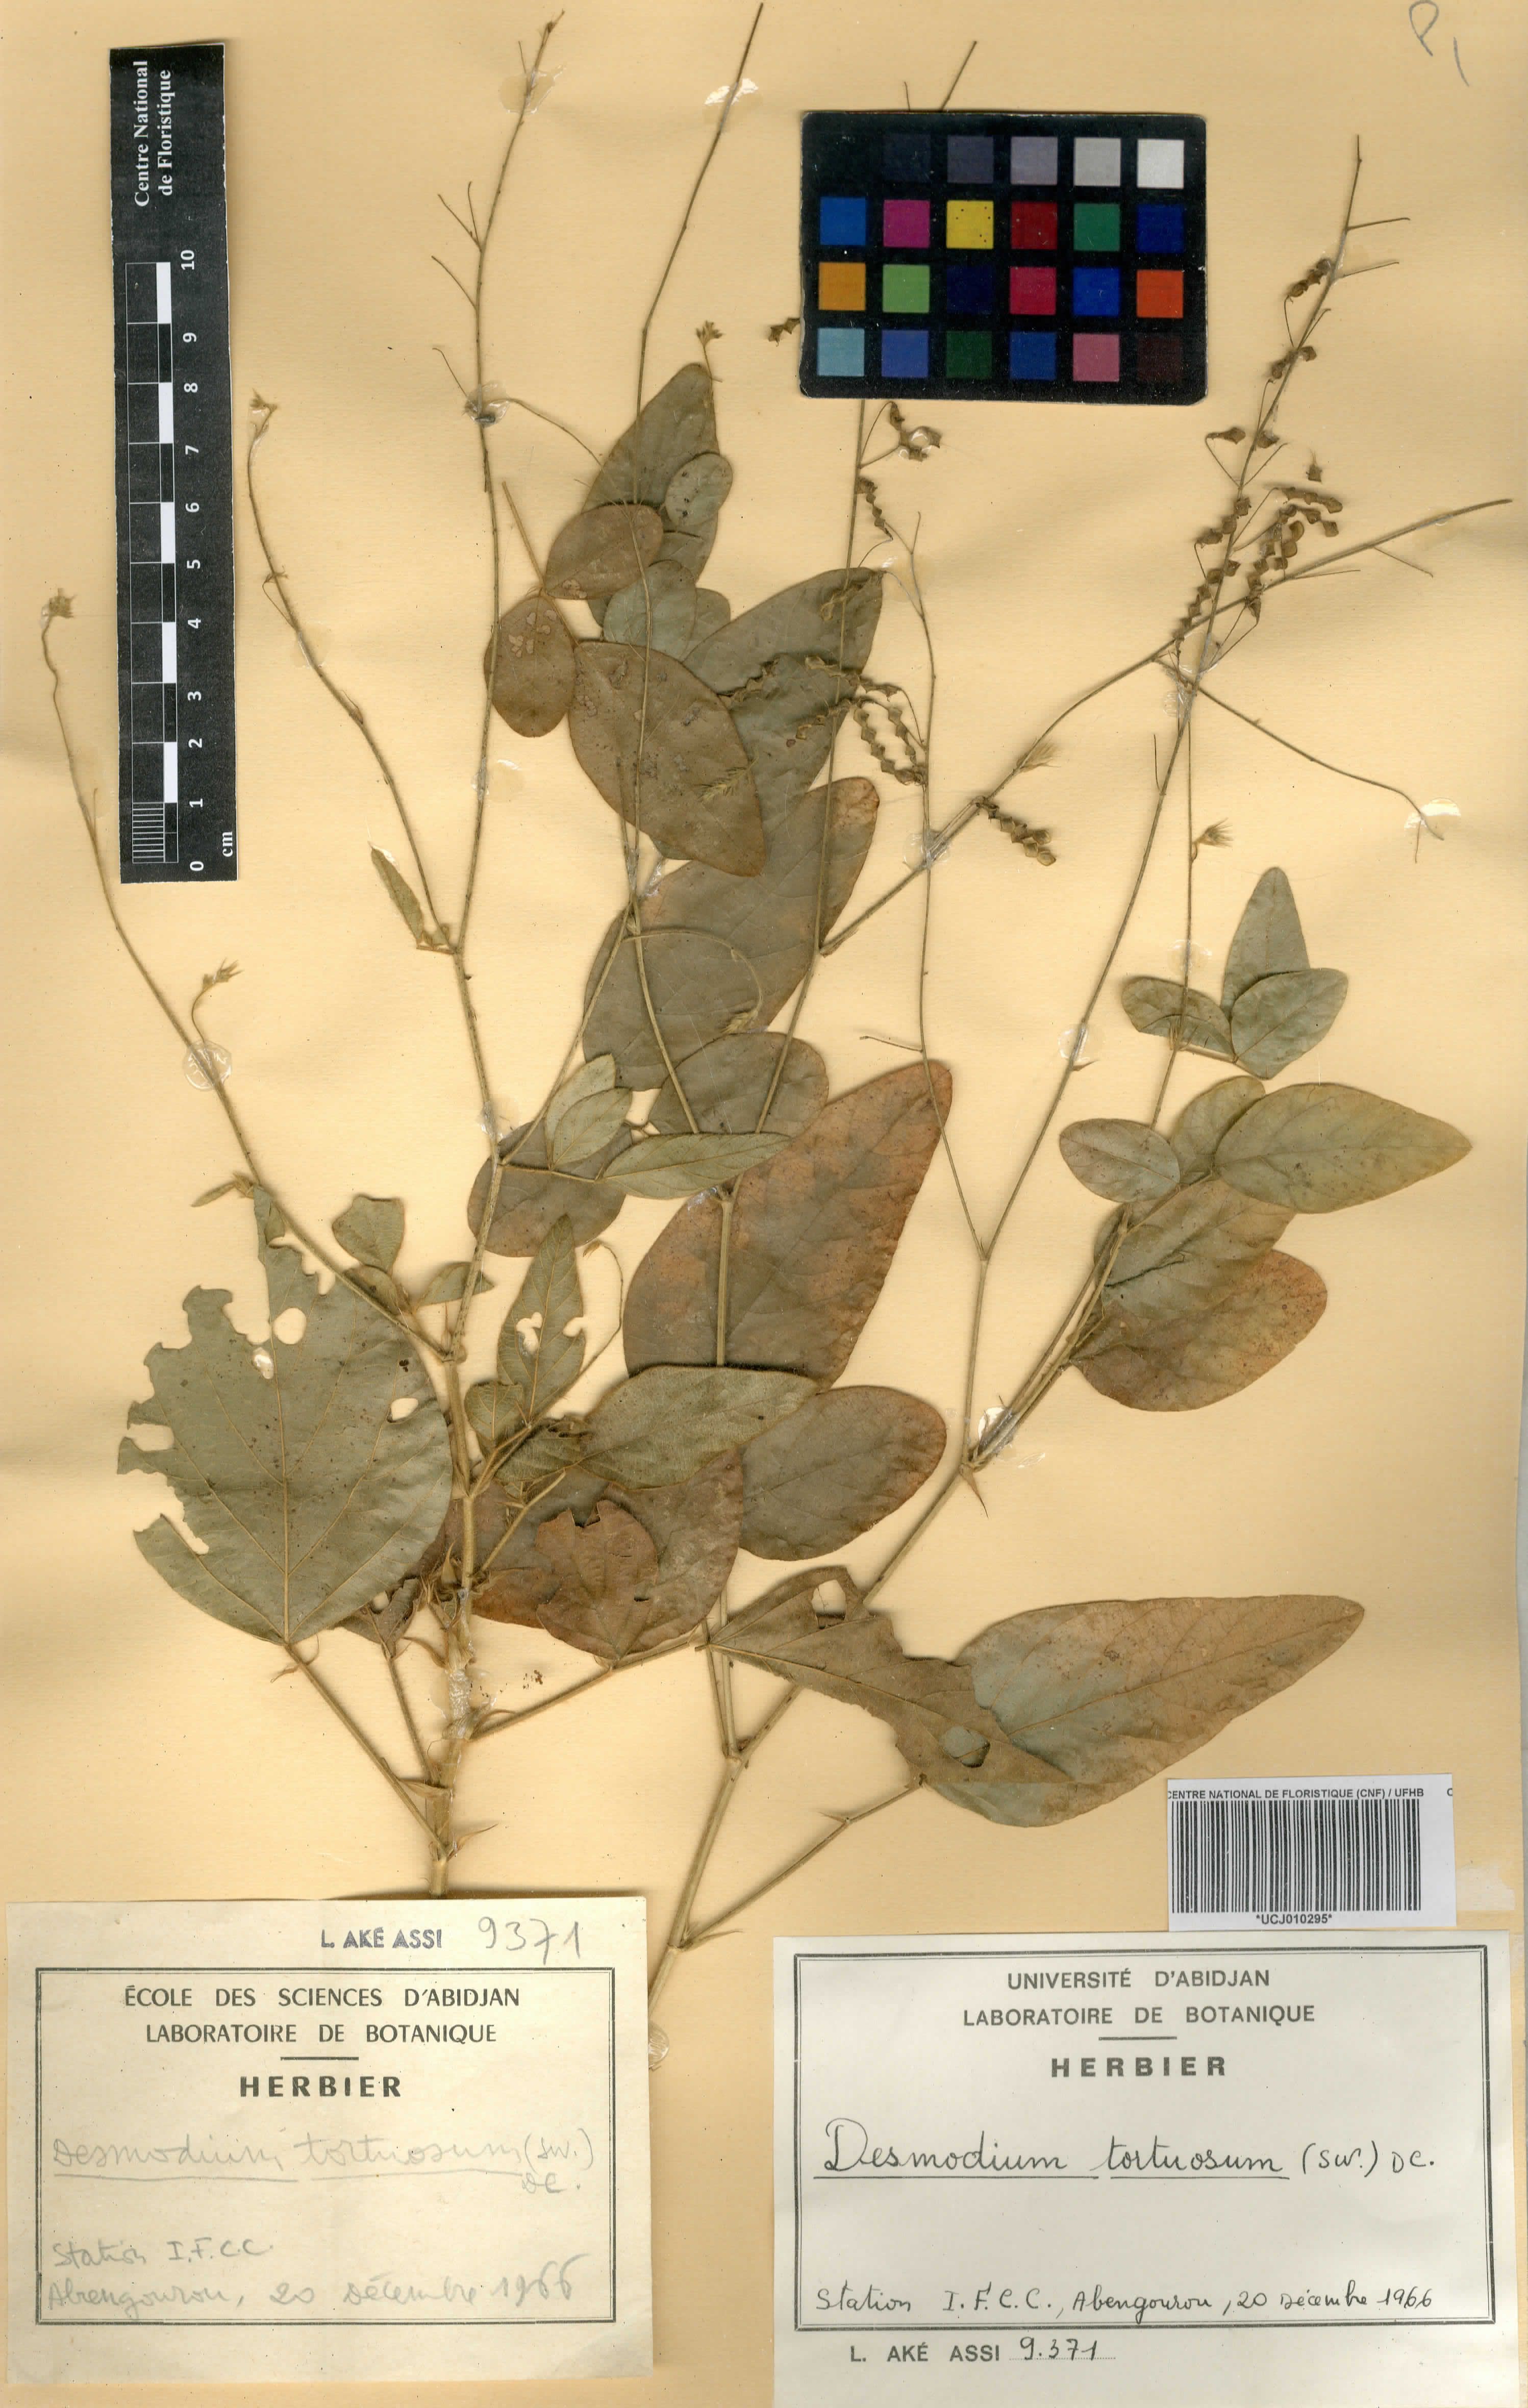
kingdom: Plantae
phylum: Tracheophyta
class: Magnoliopsida
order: Fabales
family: Fabaceae
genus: Desmodium
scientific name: Desmodium tortuosum
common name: Dixie ticktrefoil
